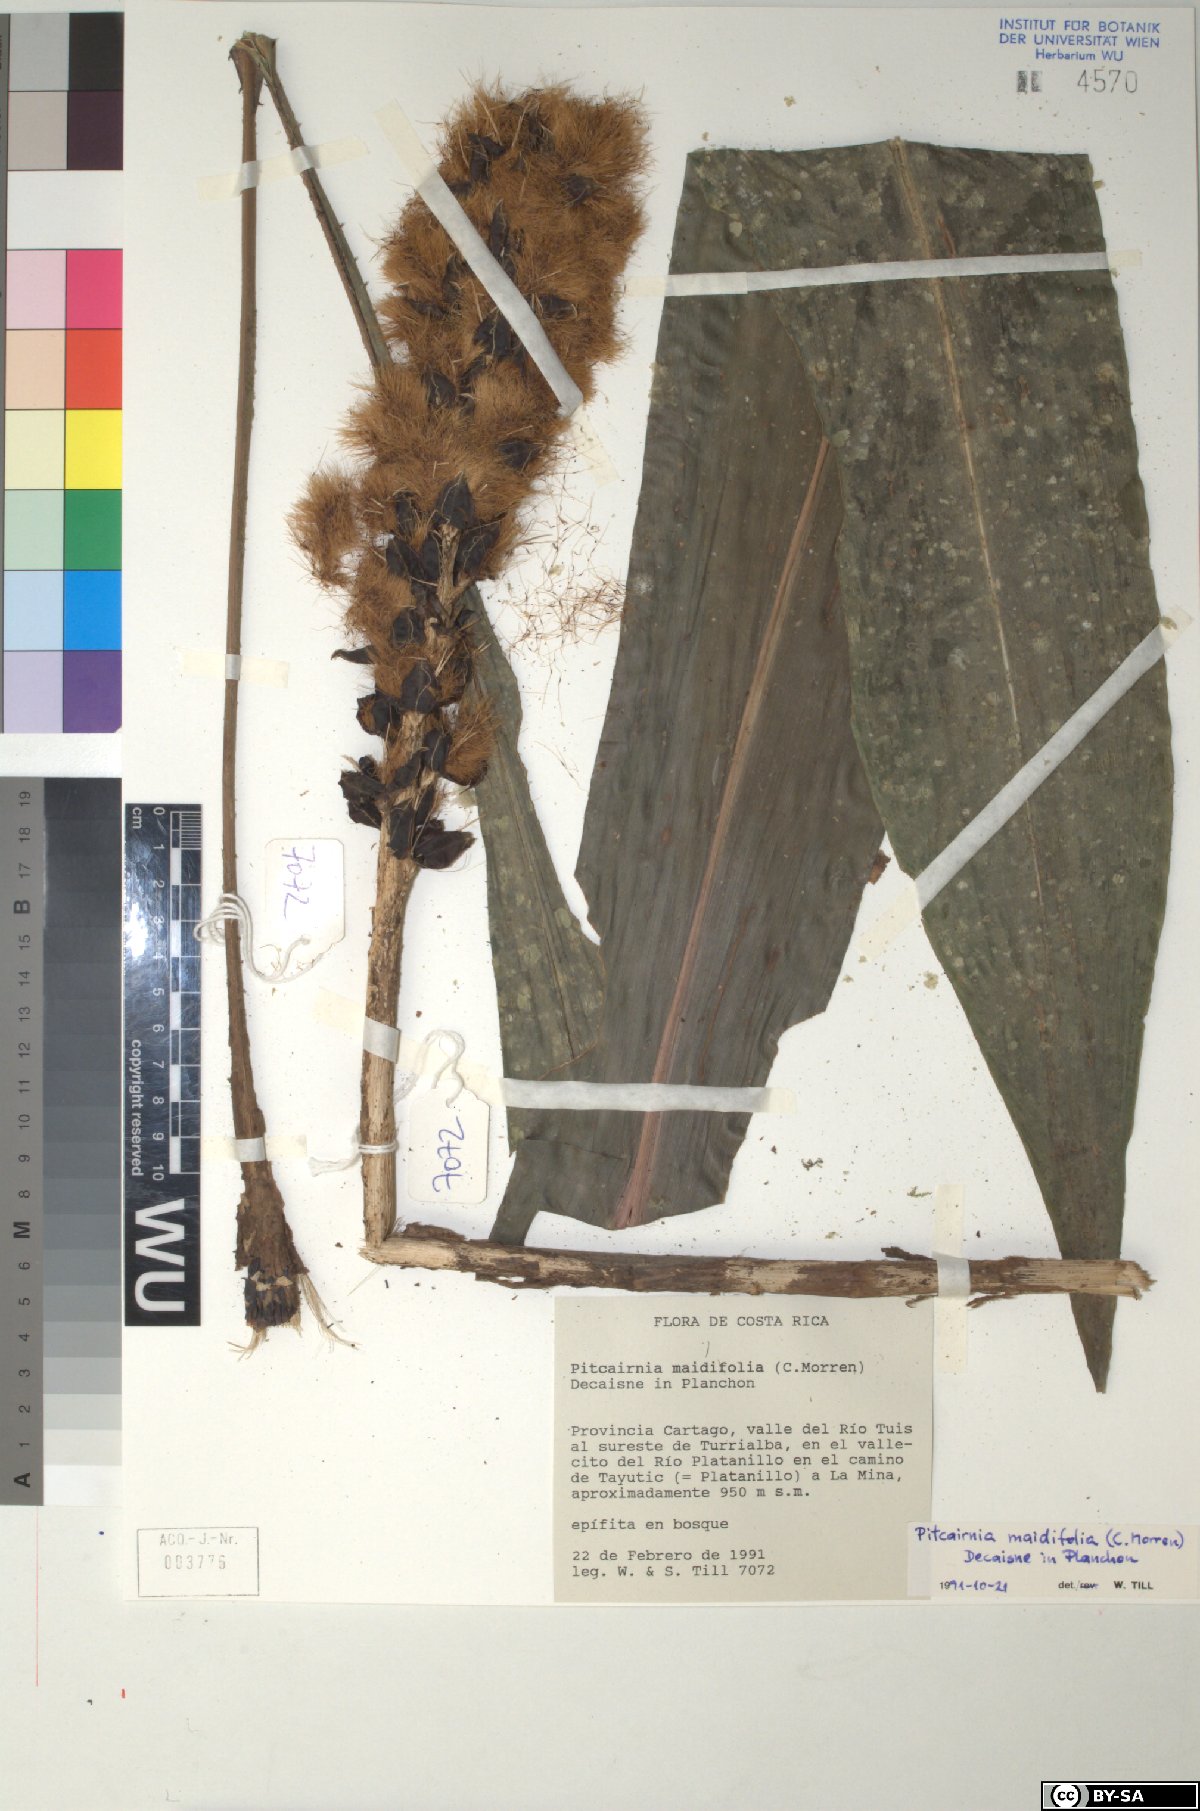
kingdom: Plantae
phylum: Tracheophyta
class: Liliopsida
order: Poales
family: Bromeliaceae
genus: Pitcairnia
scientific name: Pitcairnia maidifolia
